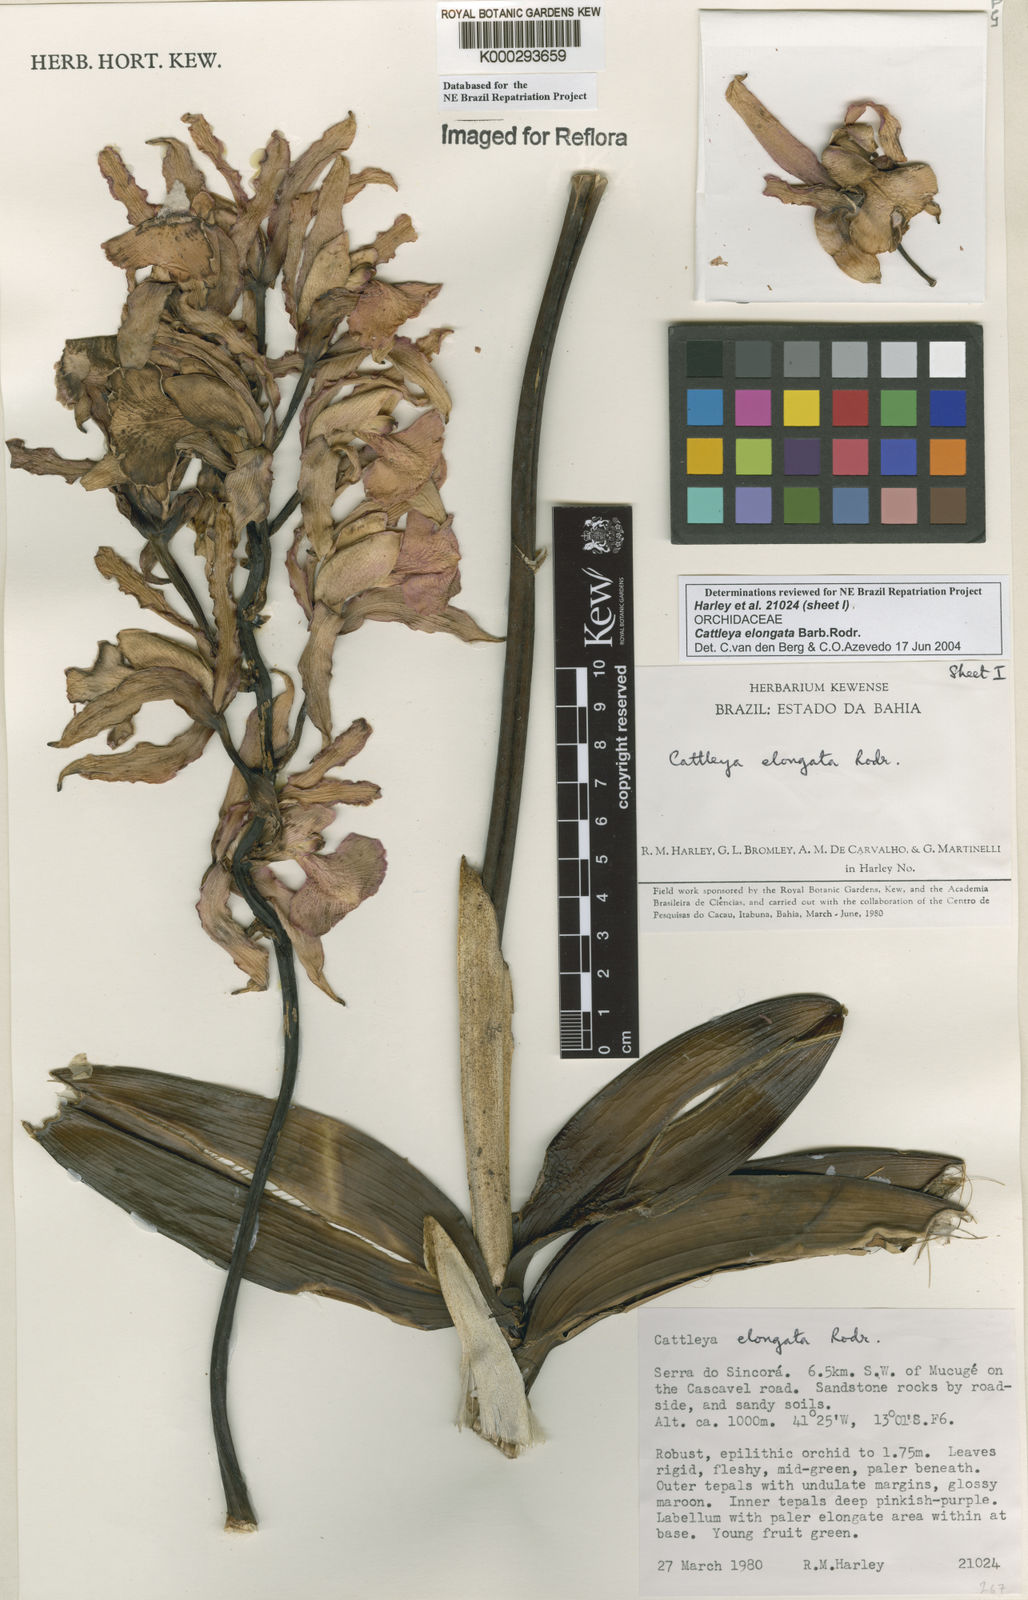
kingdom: Plantae
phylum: Tracheophyta
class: Liliopsida
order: Asparagales
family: Orchidaceae
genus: Cattleya
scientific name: Cattleya elongata
